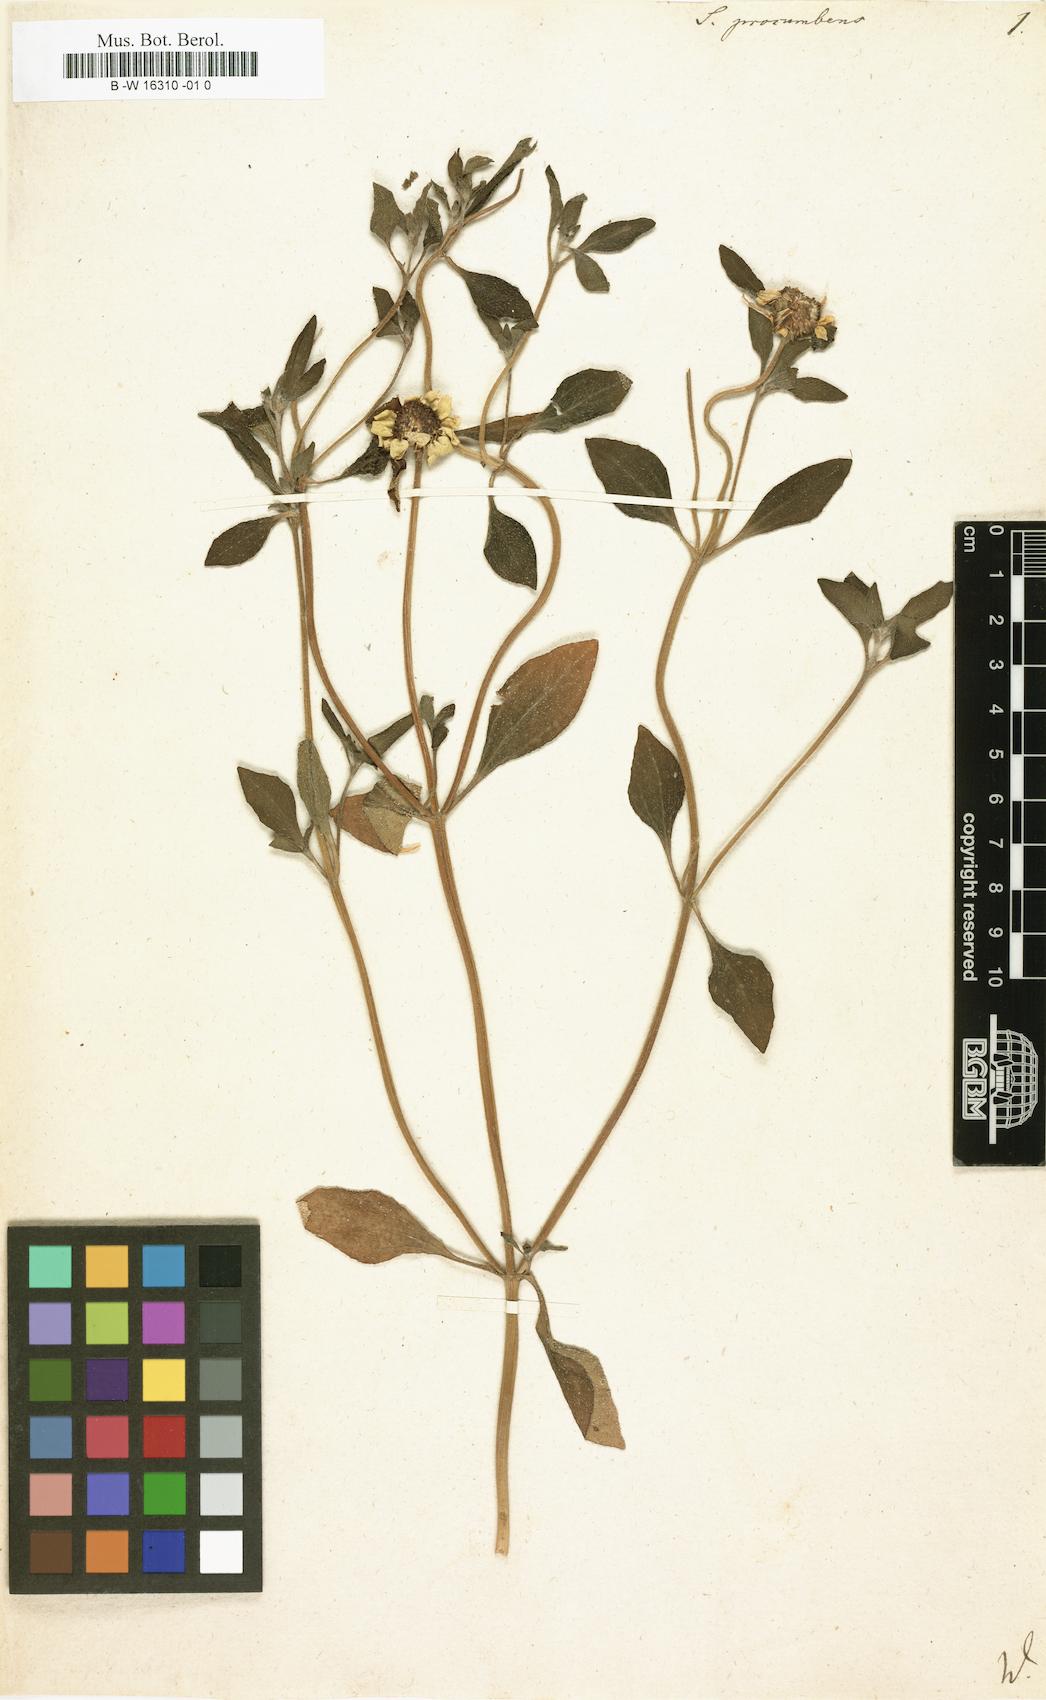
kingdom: Plantae
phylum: Tracheophyta
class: Magnoliopsida
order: Asterales
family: Asteraceae
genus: Sanvitalia
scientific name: Sanvitalia procumbens
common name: Mexican creeping zinnia
